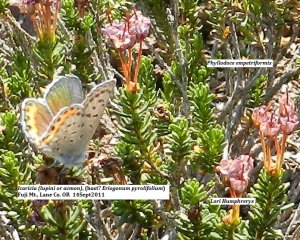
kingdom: Animalia
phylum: Arthropoda
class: Insecta
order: Lepidoptera
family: Lycaenidae
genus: Plebejus
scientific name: Plebejus lupini
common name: Lupine Blue
